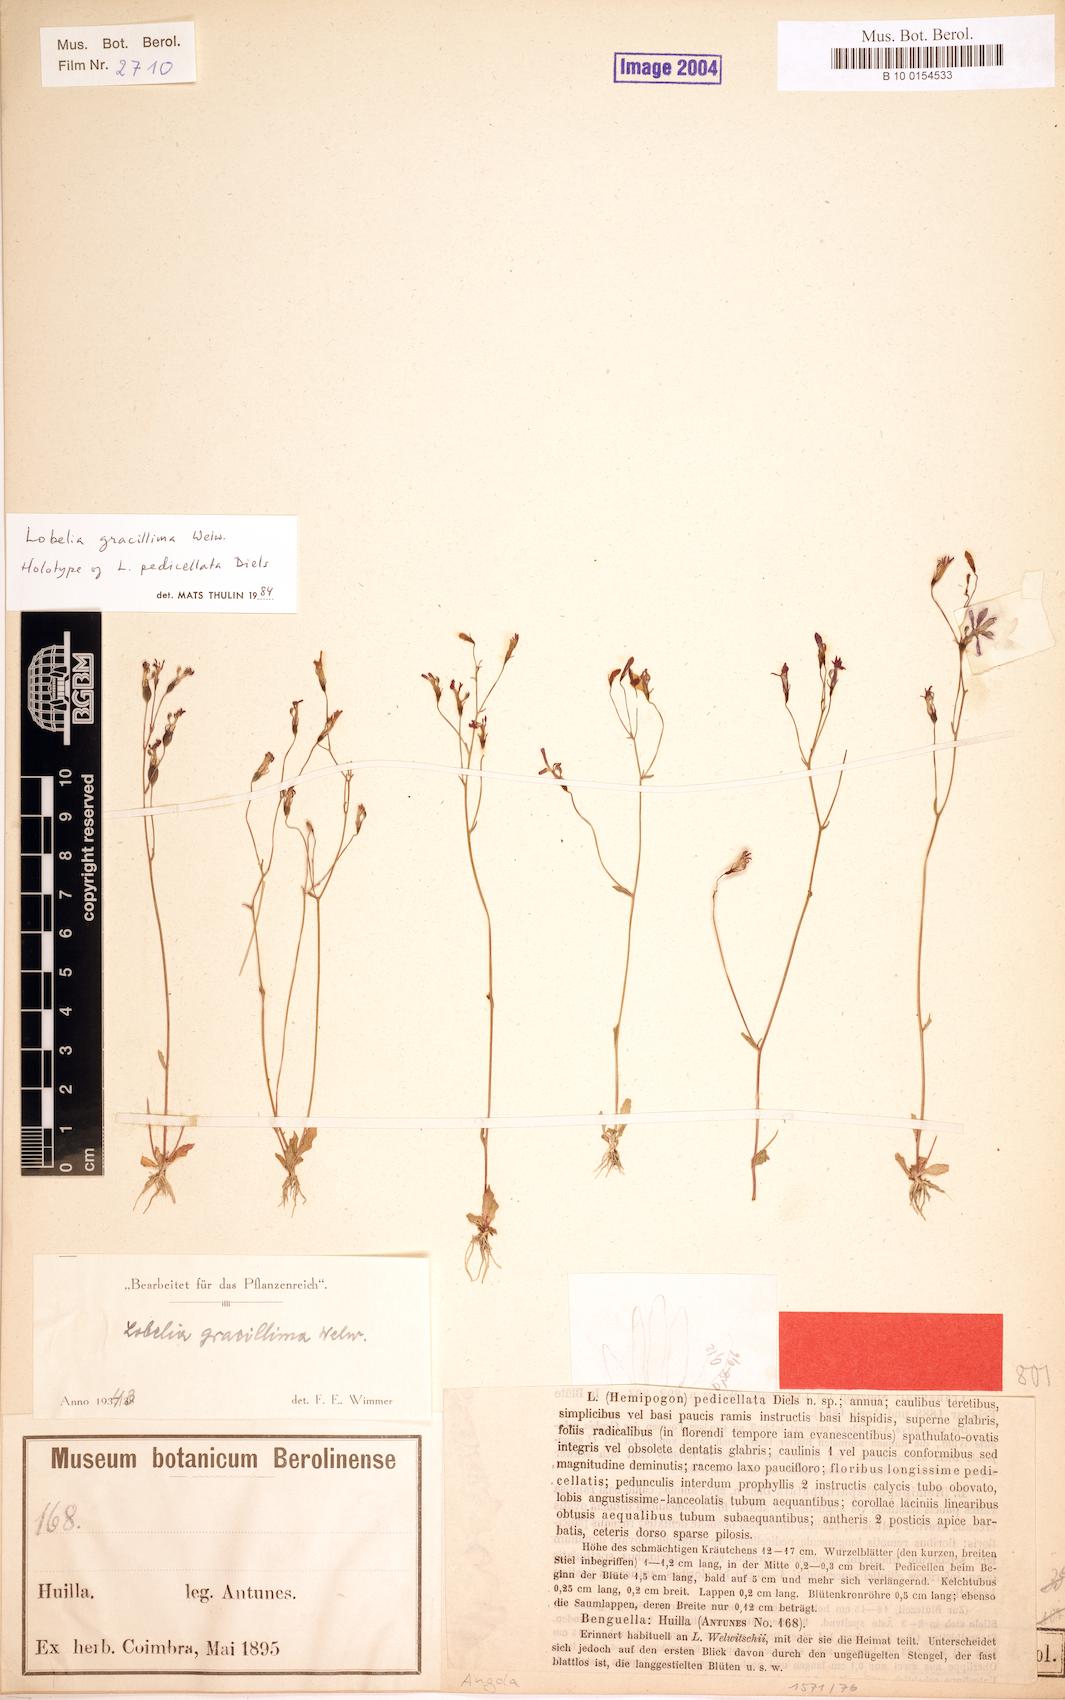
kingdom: Plantae
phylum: Tracheophyta
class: Magnoliopsida
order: Asterales
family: Campanulaceae
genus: Lobelia
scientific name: Lobelia gracillima
